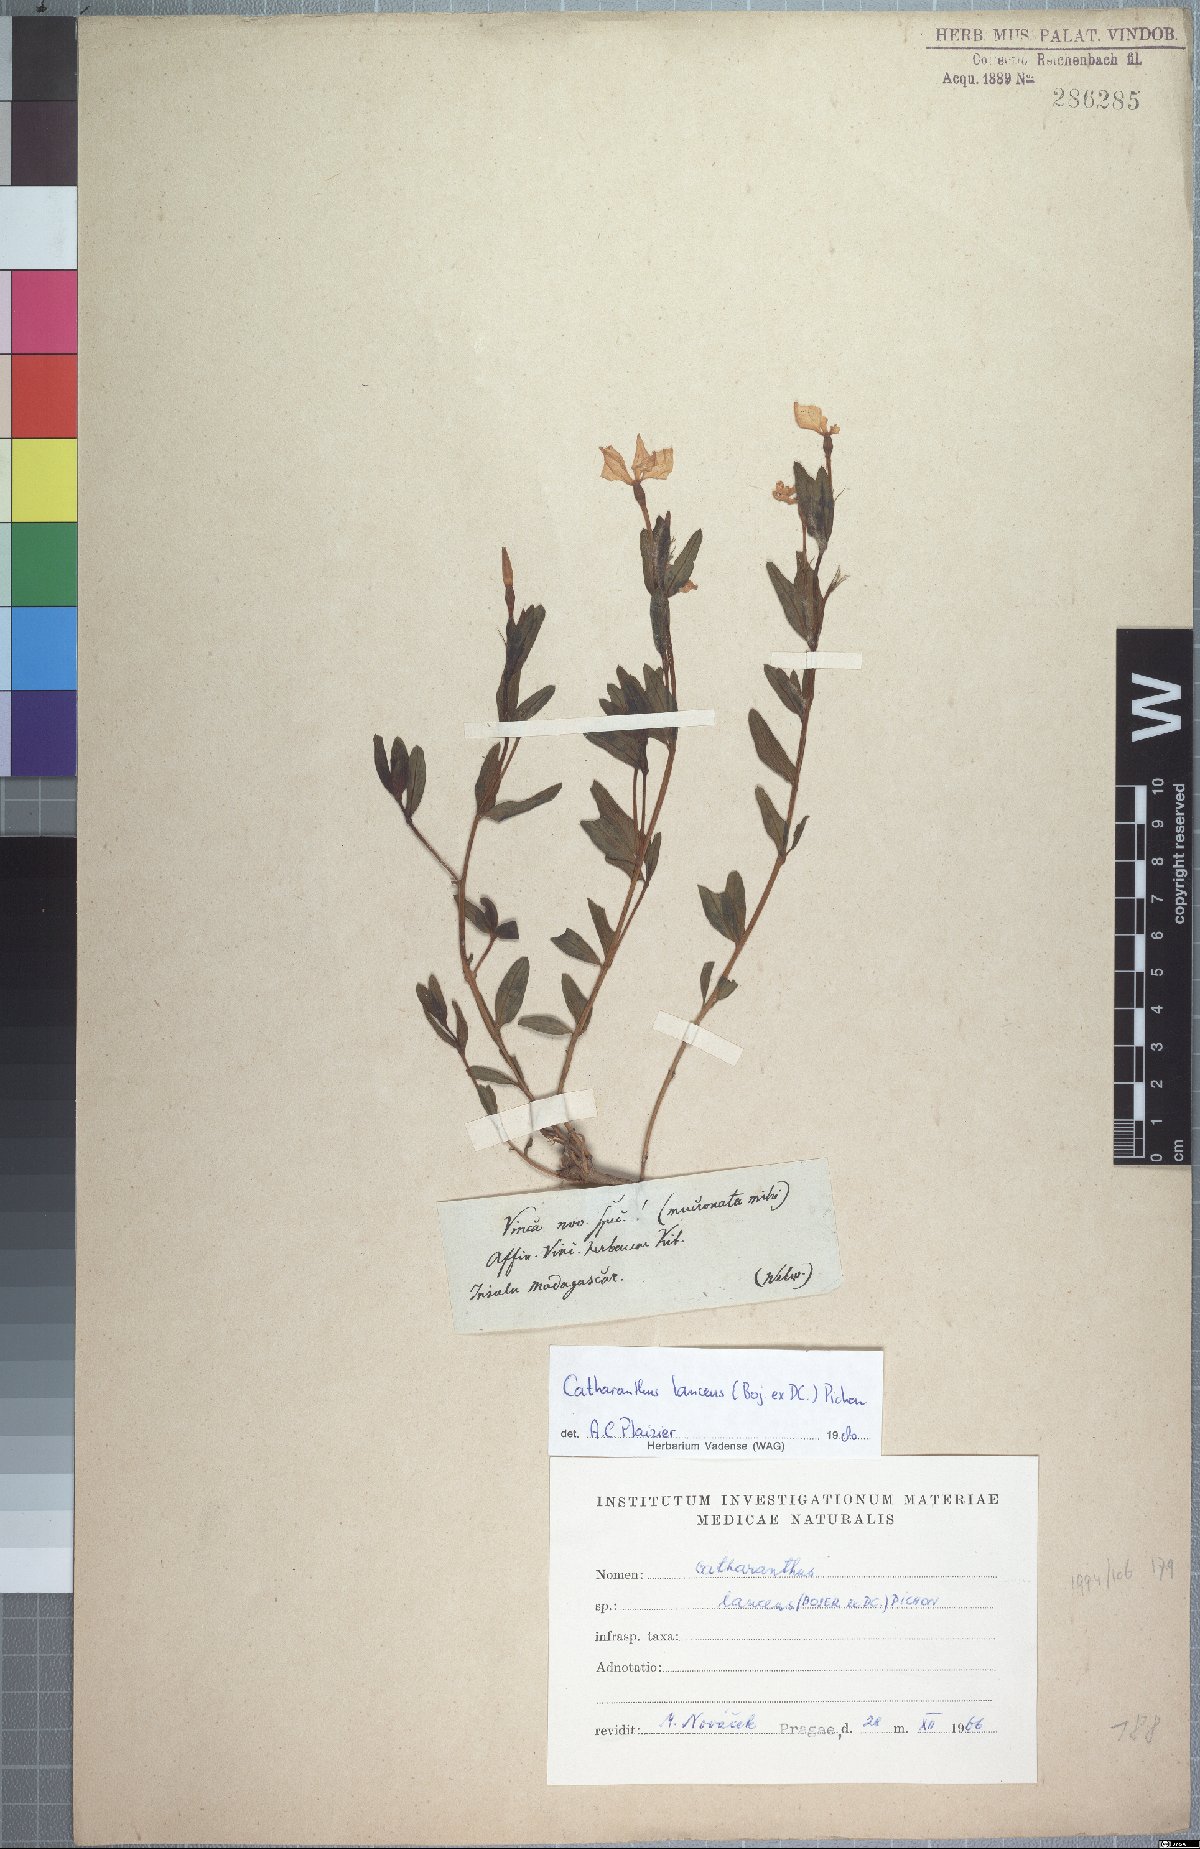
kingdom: Plantae
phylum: Tracheophyta
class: Magnoliopsida
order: Gentianales
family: Apocynaceae
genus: Catharanthus
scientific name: Catharanthus lanceus
